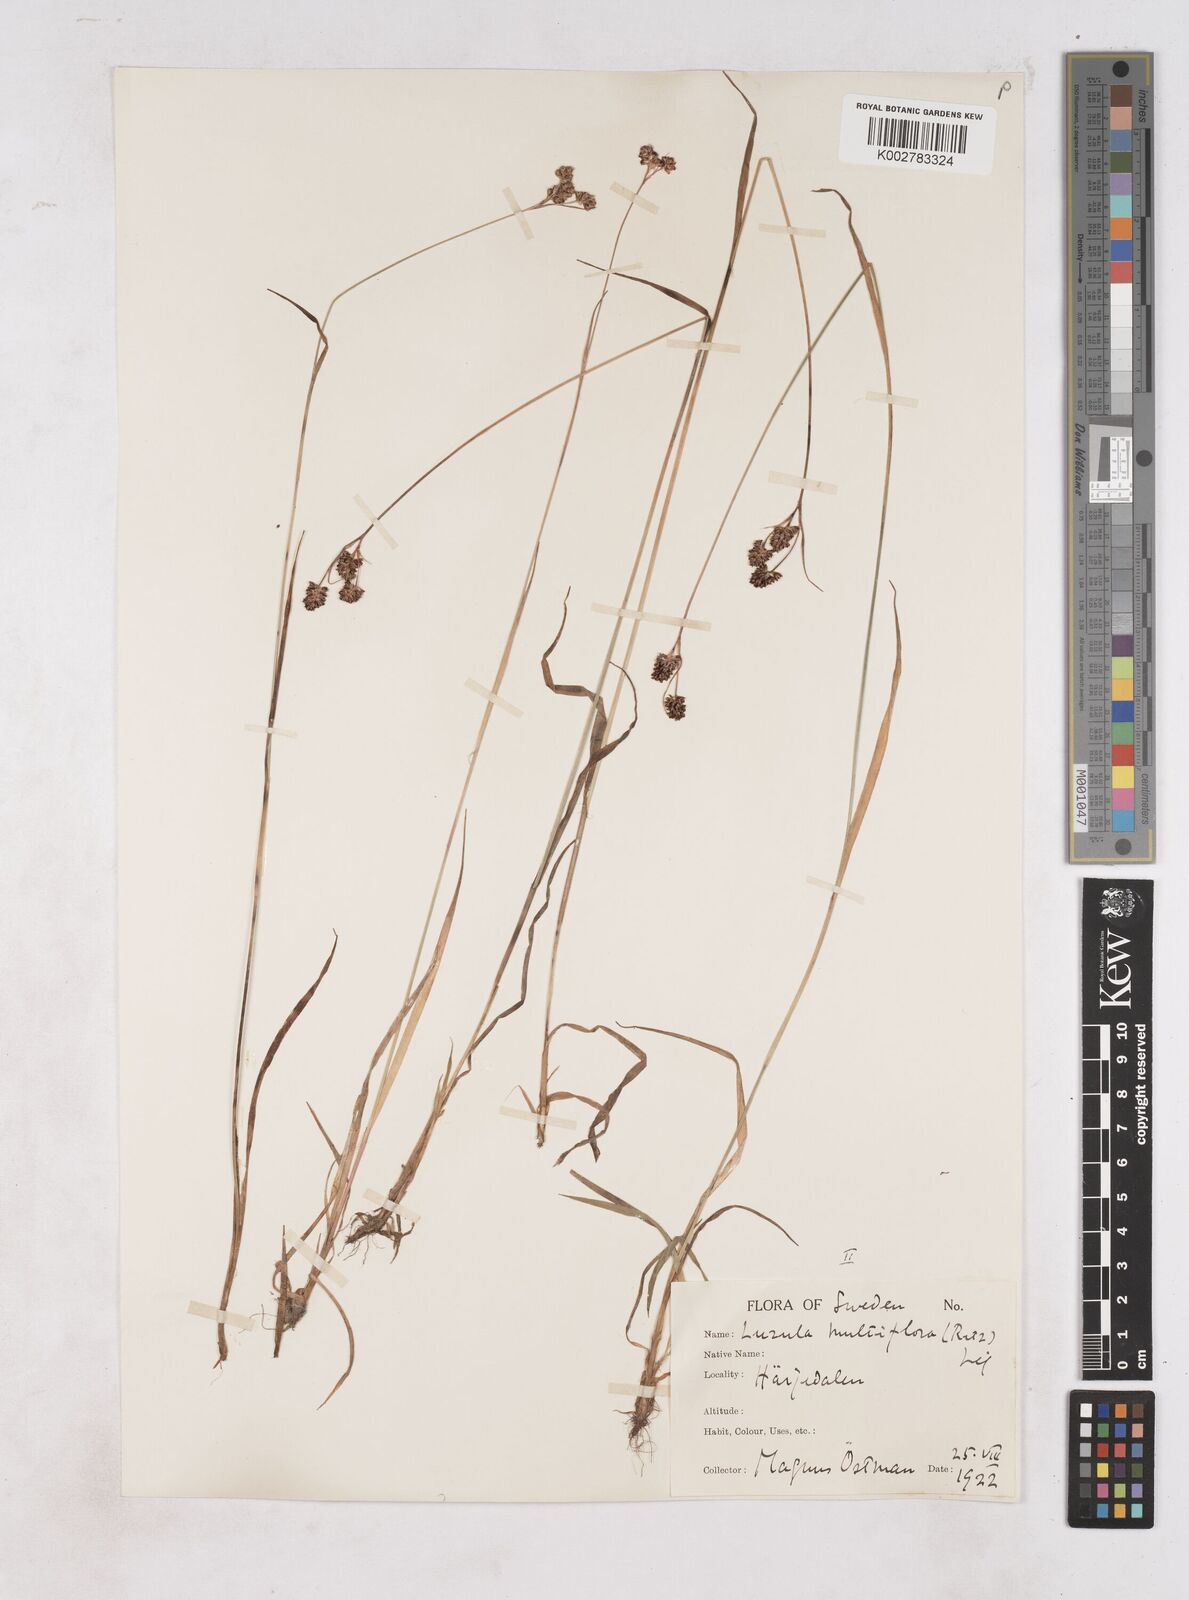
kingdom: Plantae
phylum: Tracheophyta
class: Liliopsida
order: Poales
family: Juncaceae
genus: Luzula
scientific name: Luzula multiflora
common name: Heath wood-rush
